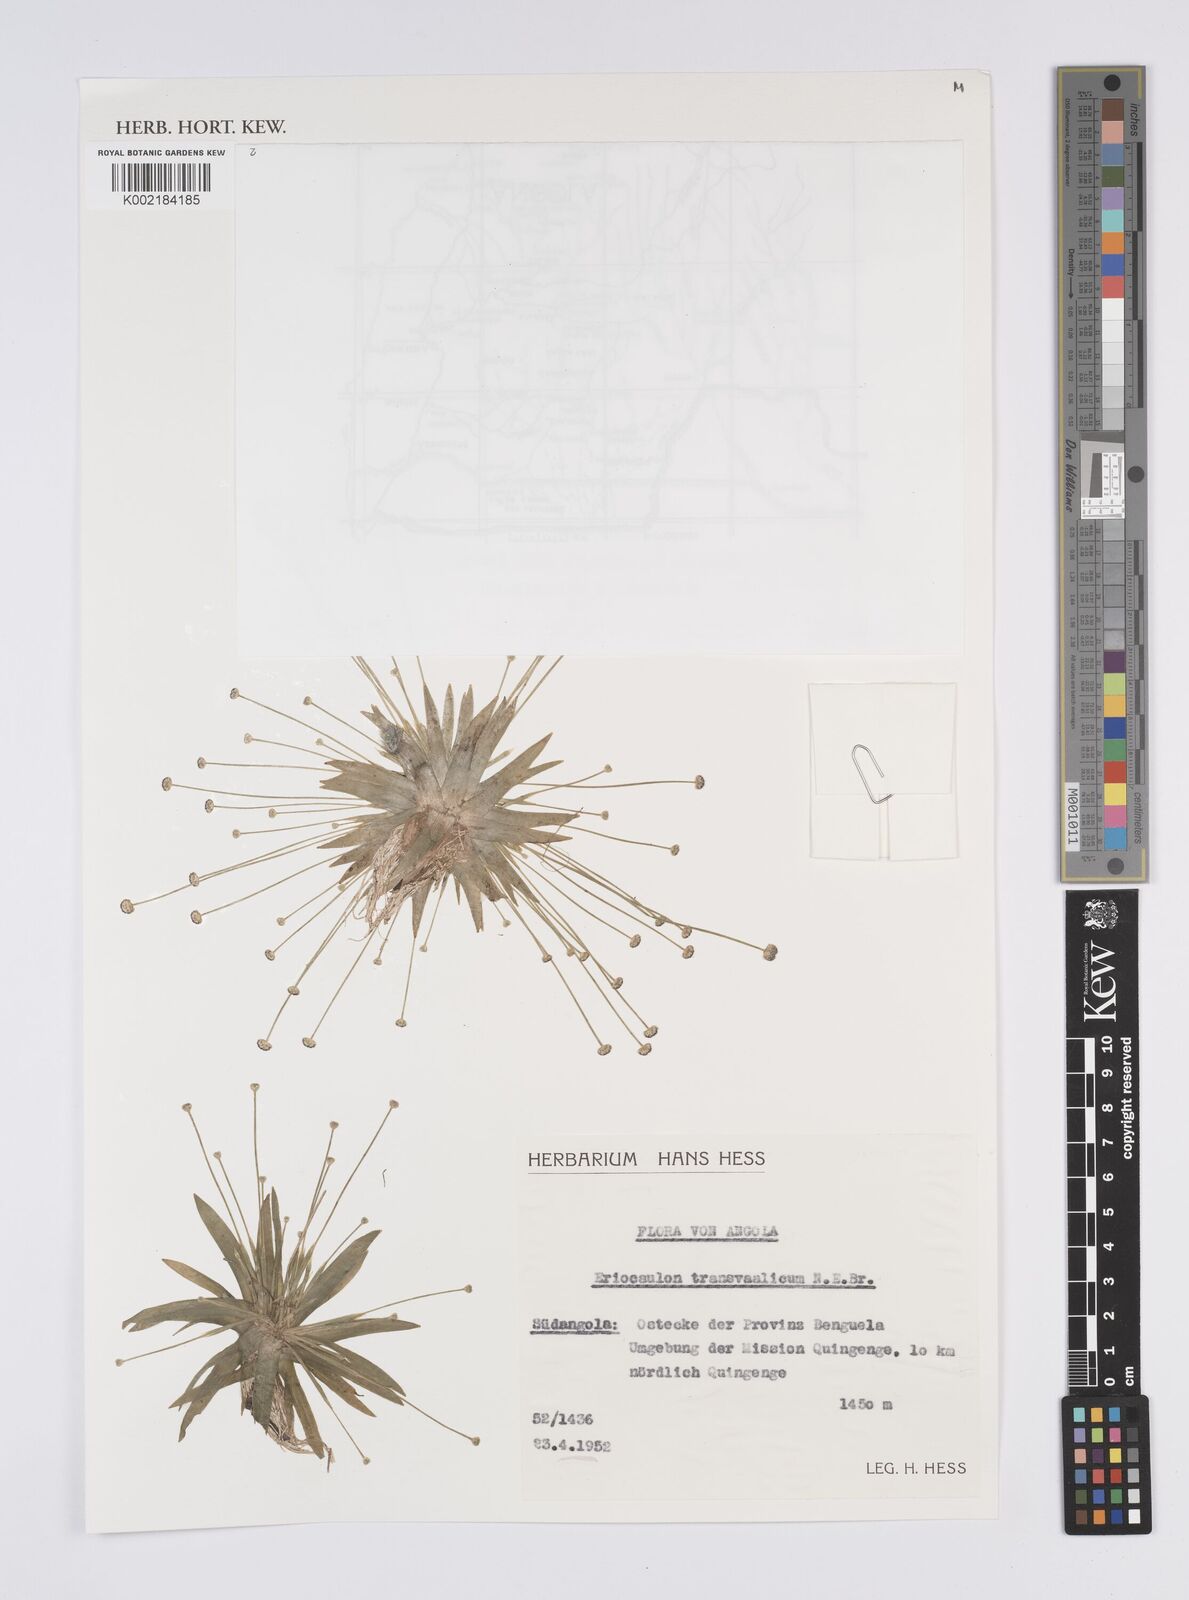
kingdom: Plantae
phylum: Tracheophyta
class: Liliopsida
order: Poales
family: Eriocaulaceae
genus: Eriocaulon
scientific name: Eriocaulon transvaalicum
